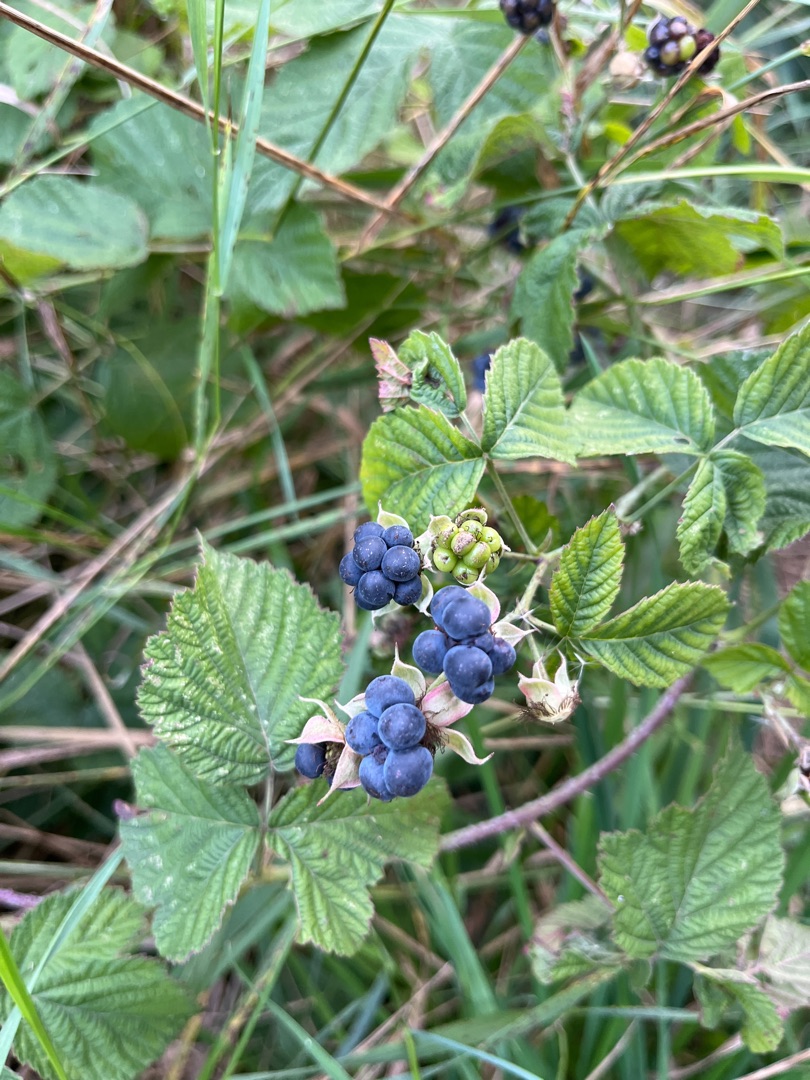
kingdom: Plantae
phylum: Tracheophyta
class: Magnoliopsida
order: Rosales
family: Rosaceae
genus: Rubus
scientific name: Rubus caesius
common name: Korbær
